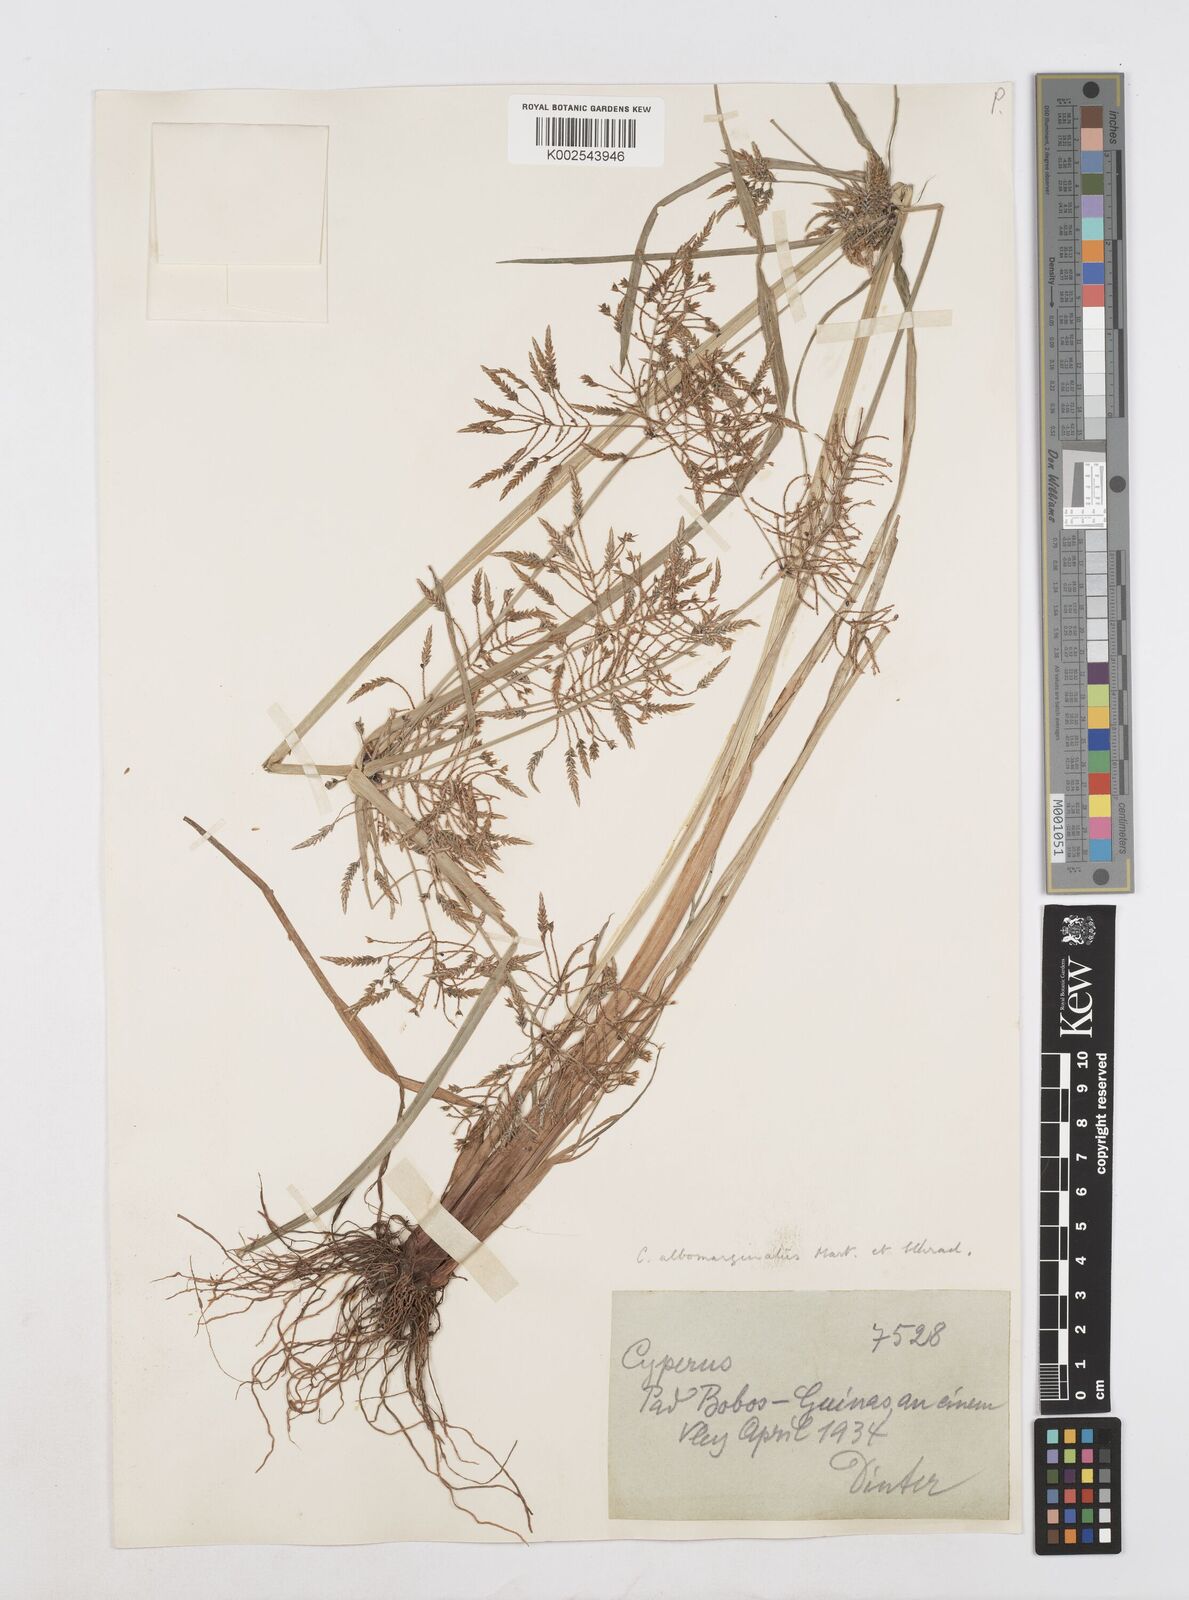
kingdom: Plantae
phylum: Tracheophyta
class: Liliopsida
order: Poales
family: Cyperaceae
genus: Cyperus
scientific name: Cyperus macrostachyos
